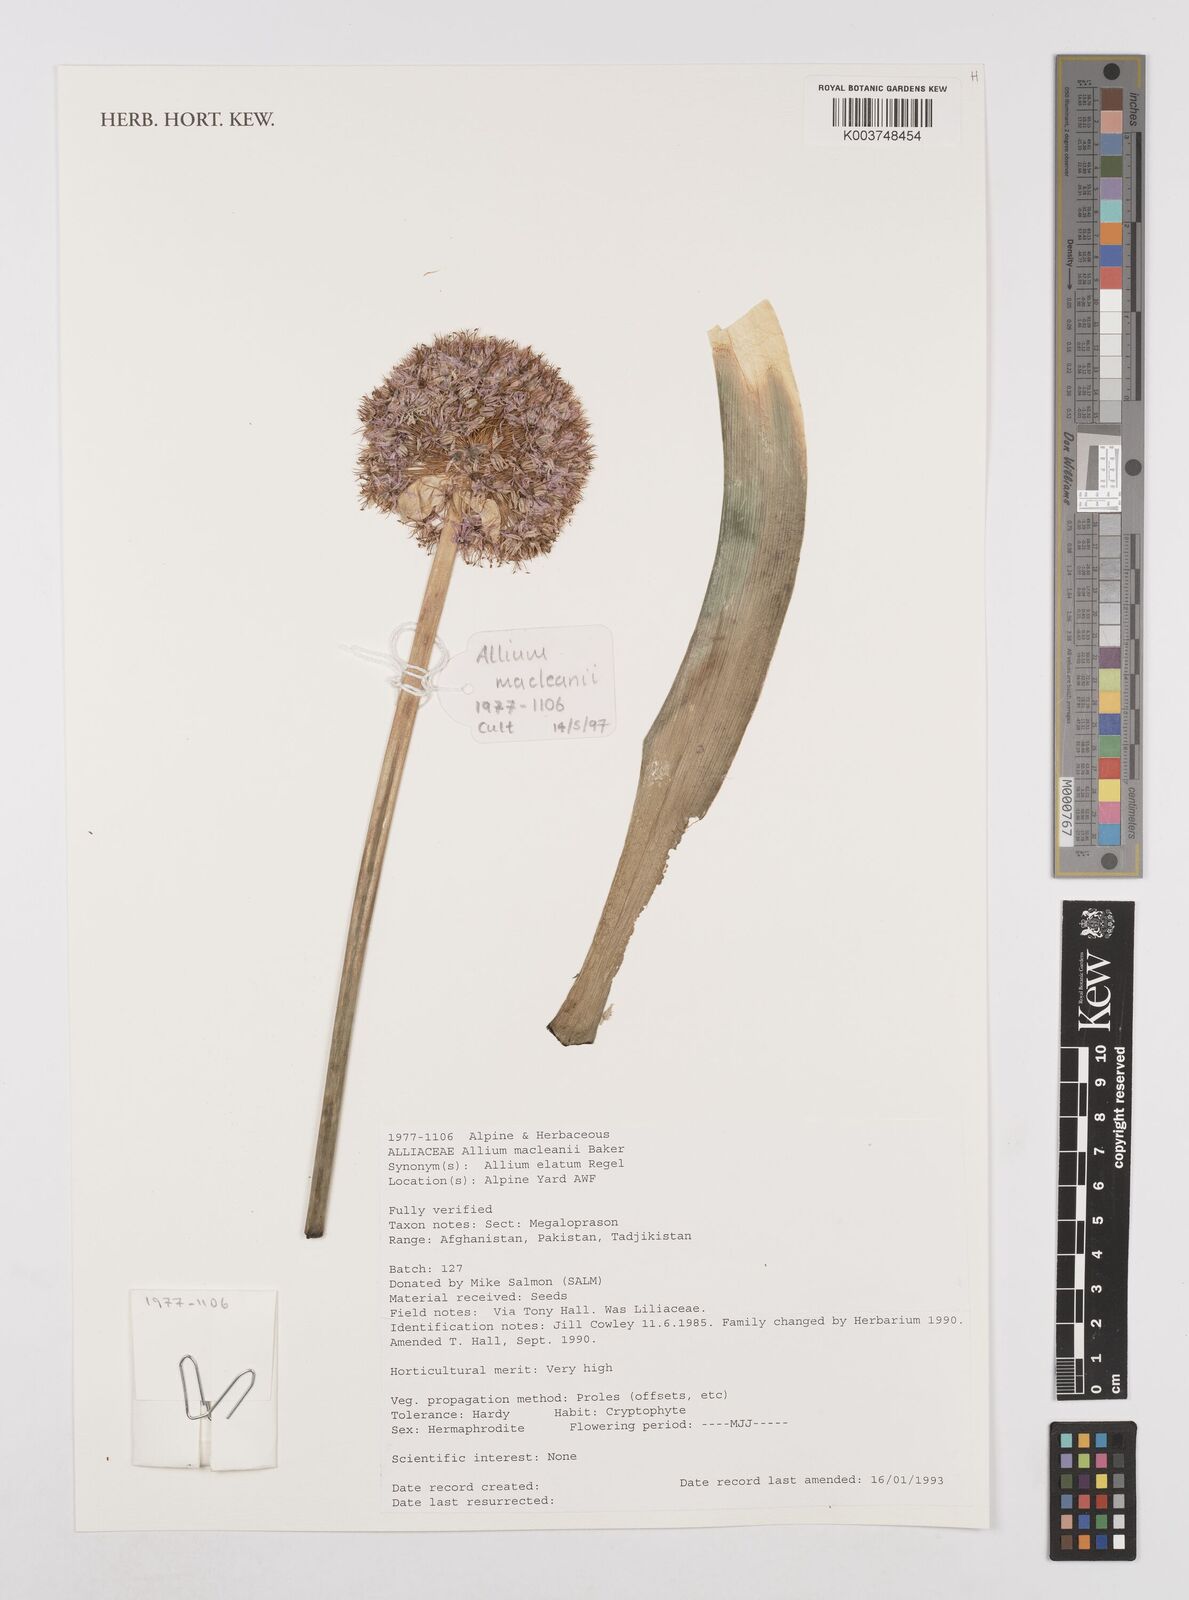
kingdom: Plantae
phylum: Tracheophyta
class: Liliopsida
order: Asparagales
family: Amaryllidaceae
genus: Allium
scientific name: Allium macleanii
